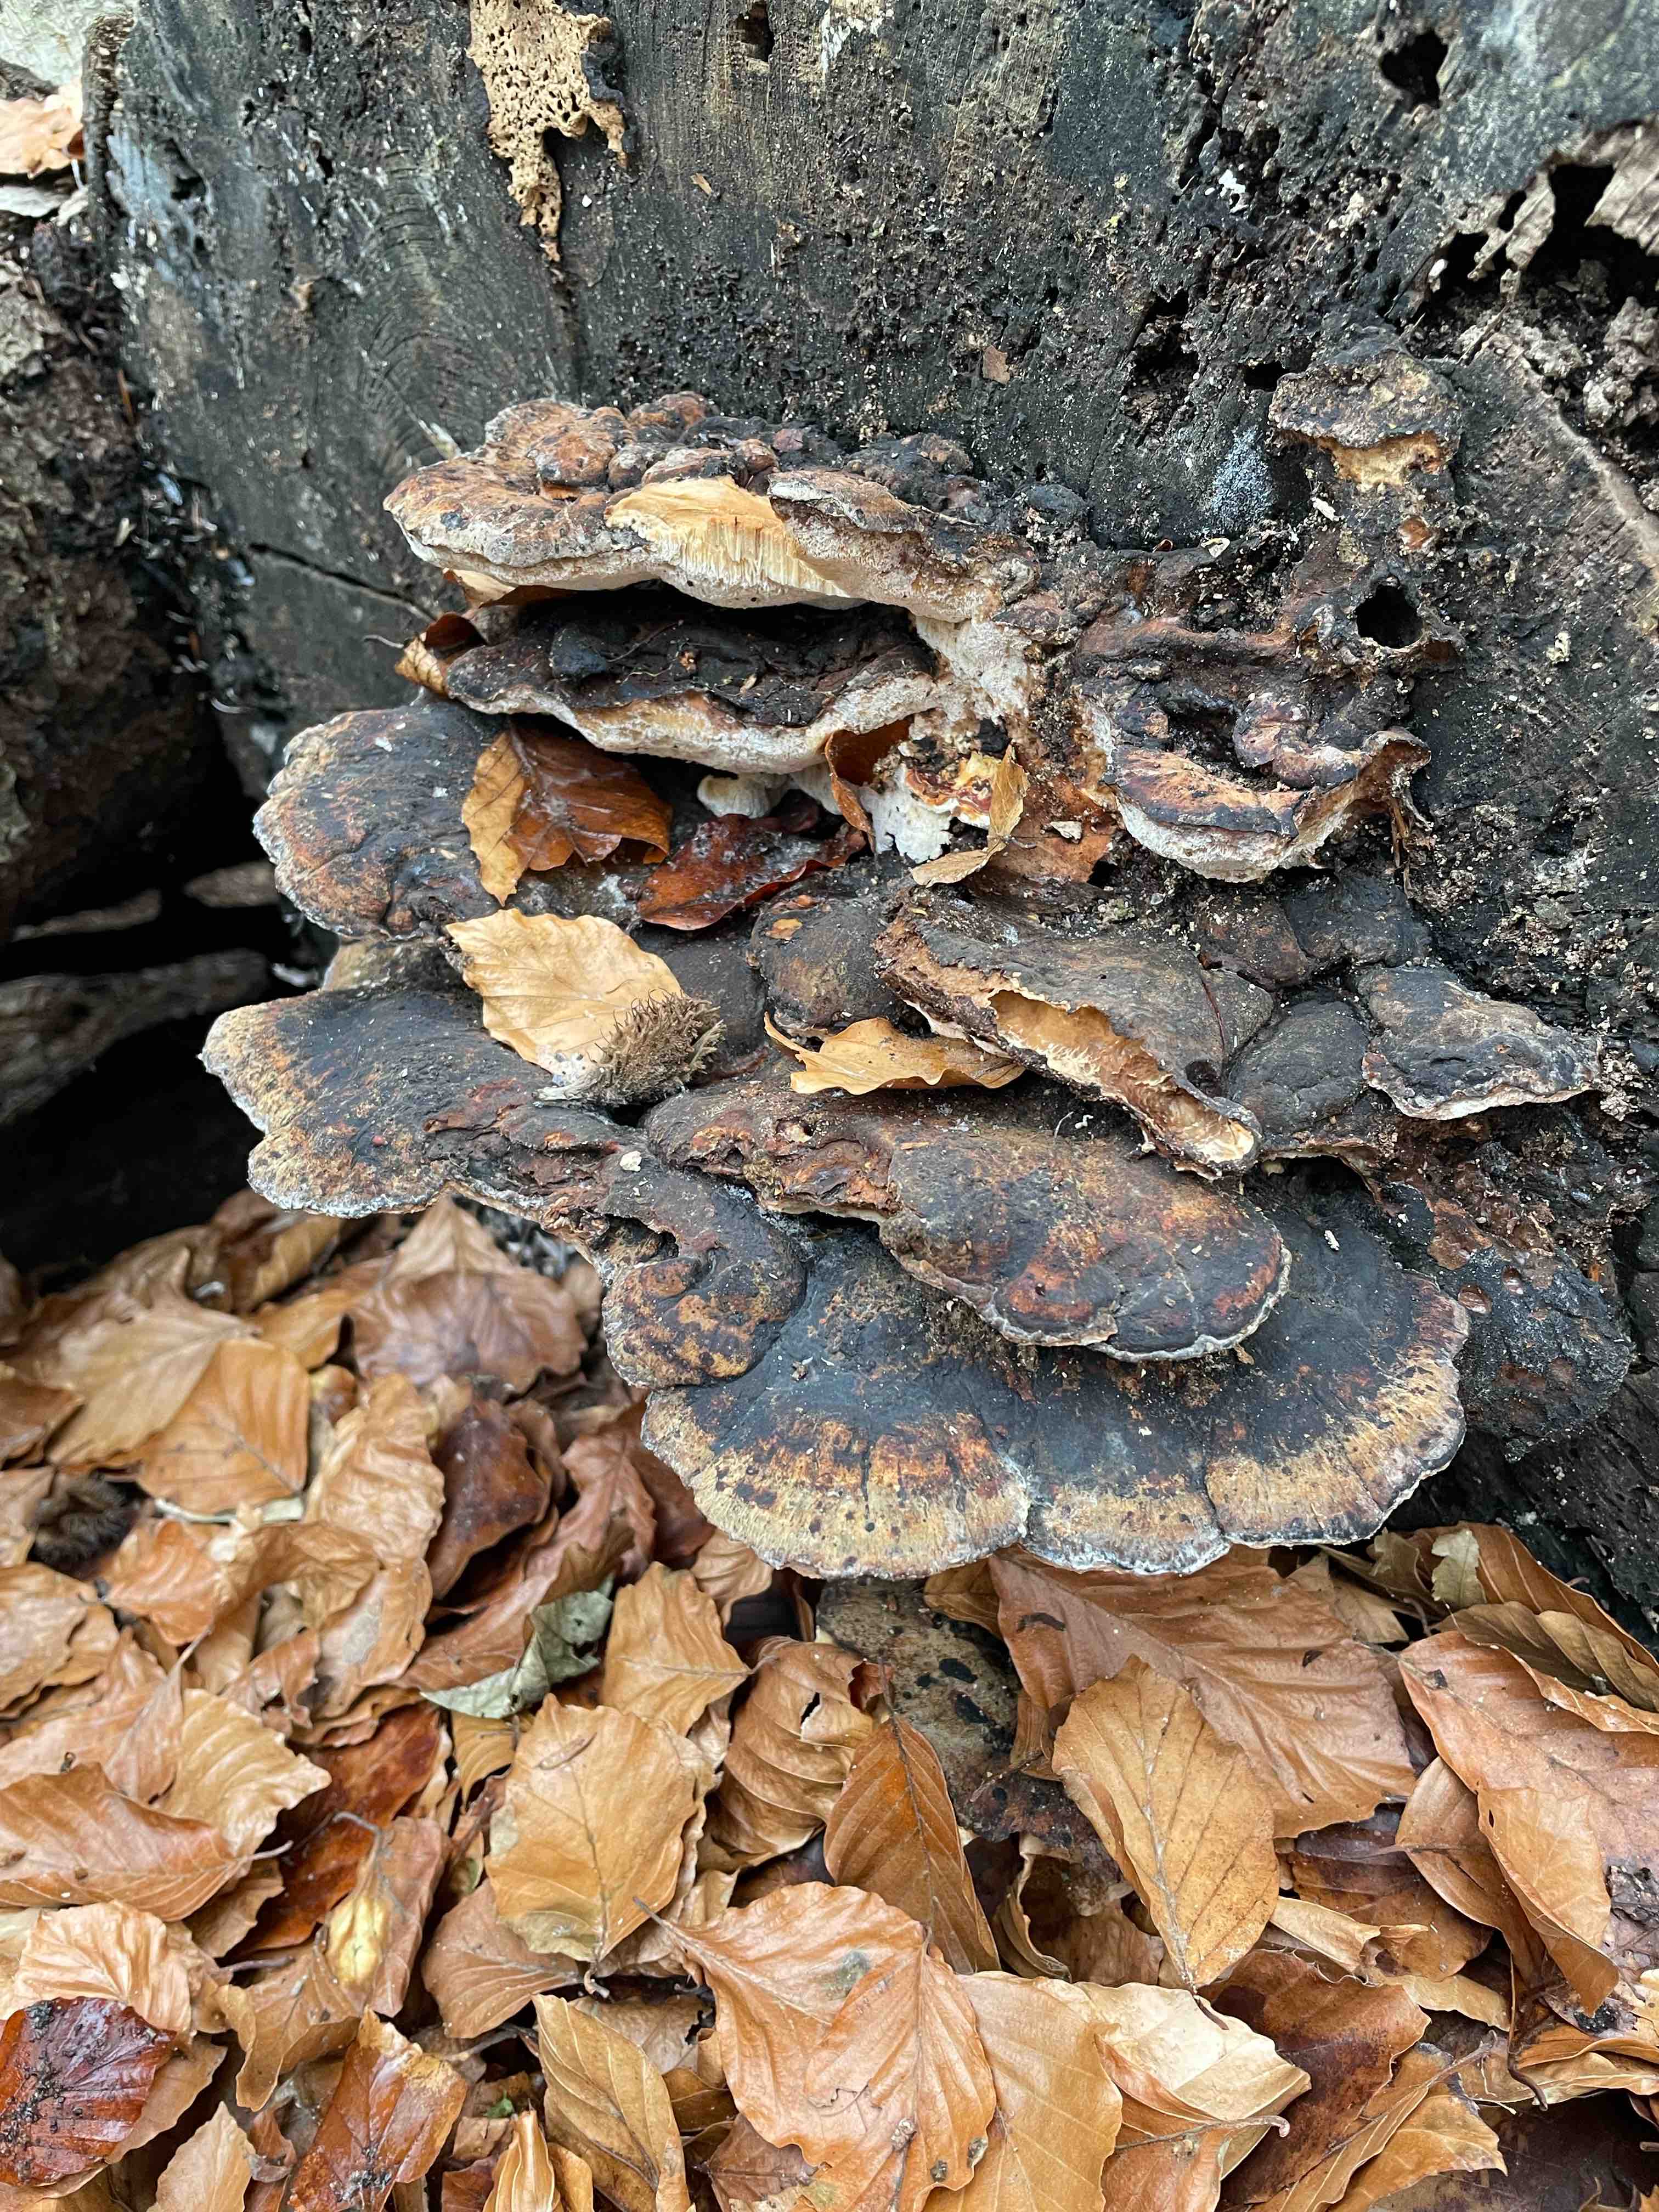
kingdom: Fungi
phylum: Basidiomycota
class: Agaricomycetes
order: Polyporales
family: Ischnodermataceae
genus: Ischnoderma
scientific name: Ischnoderma resinosum
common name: løv-tjæreporesvamp
